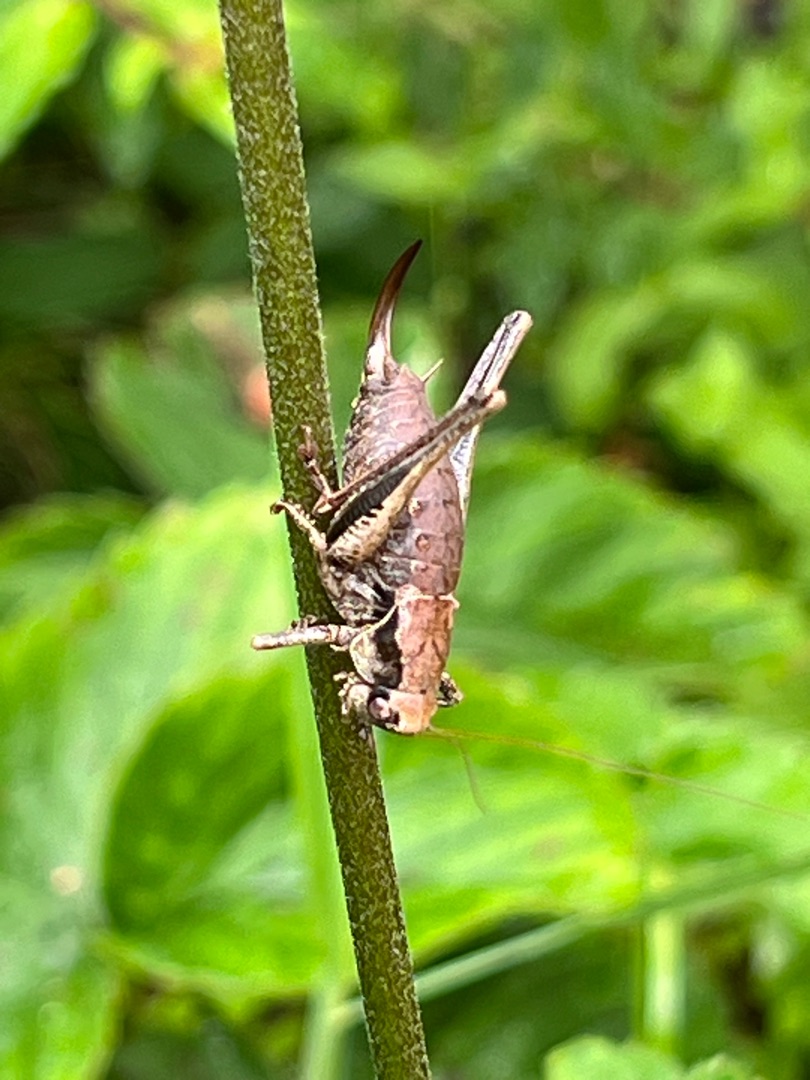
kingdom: Animalia
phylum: Arthropoda
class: Insecta
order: Orthoptera
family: Tettigoniidae
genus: Pholidoptera
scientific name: Pholidoptera griseoaptera
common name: Buskgræshoppe
